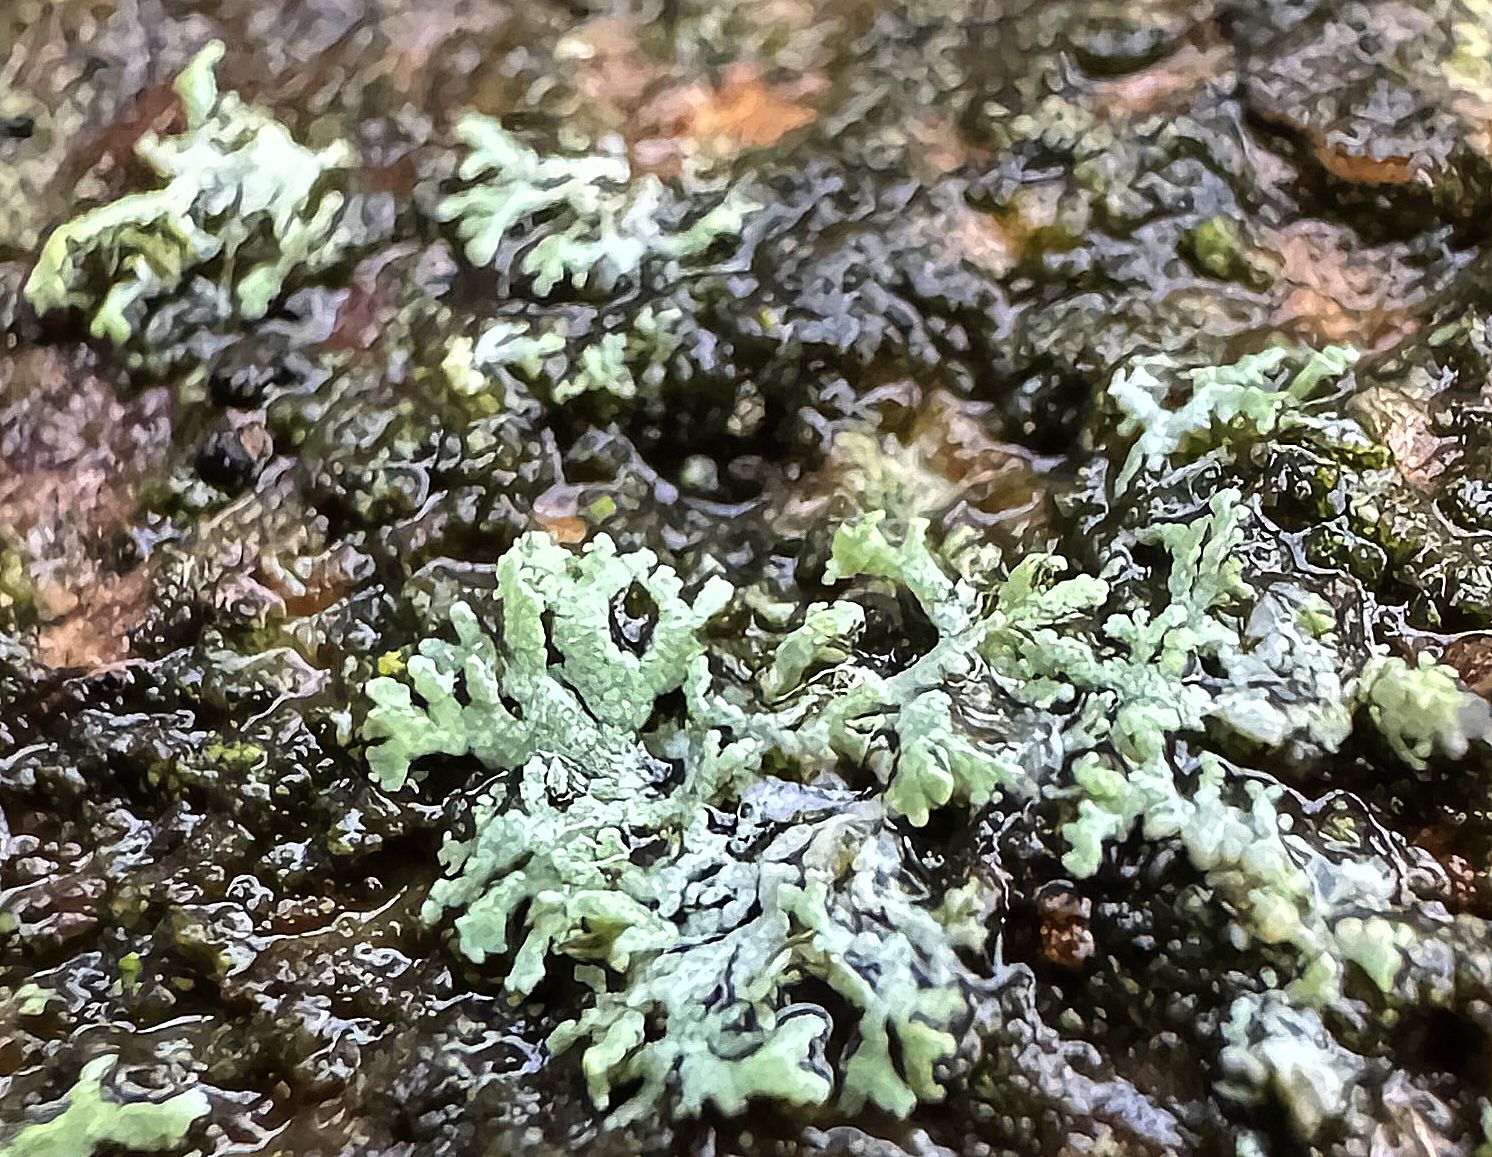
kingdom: Fungi
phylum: Ascomycota
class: Lecanoromycetes
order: Caliciales
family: Physciaceae
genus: Physcia
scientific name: Physcia
